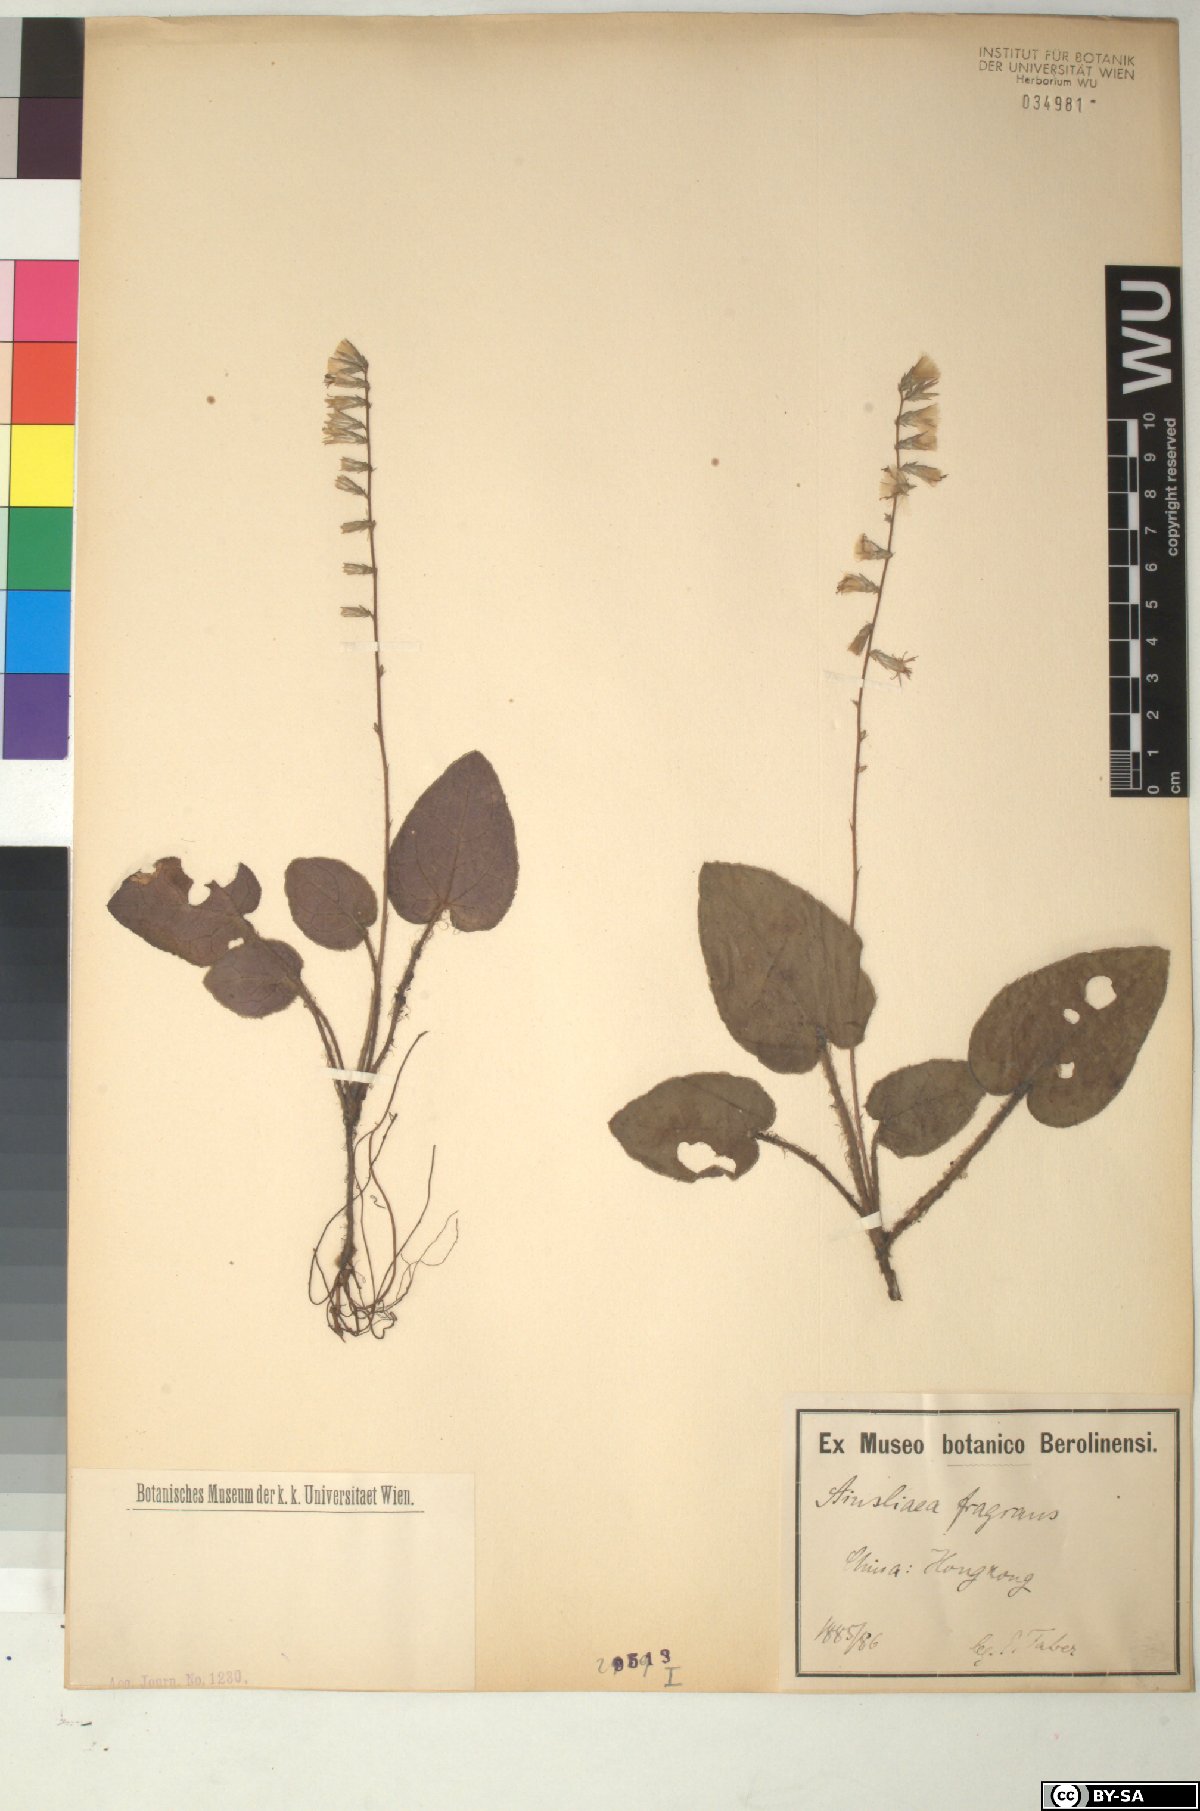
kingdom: Plantae
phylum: Tracheophyta
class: Magnoliopsida
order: Asterales
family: Asteraceae
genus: Ainsliaea
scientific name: Ainsliaea fragrans
